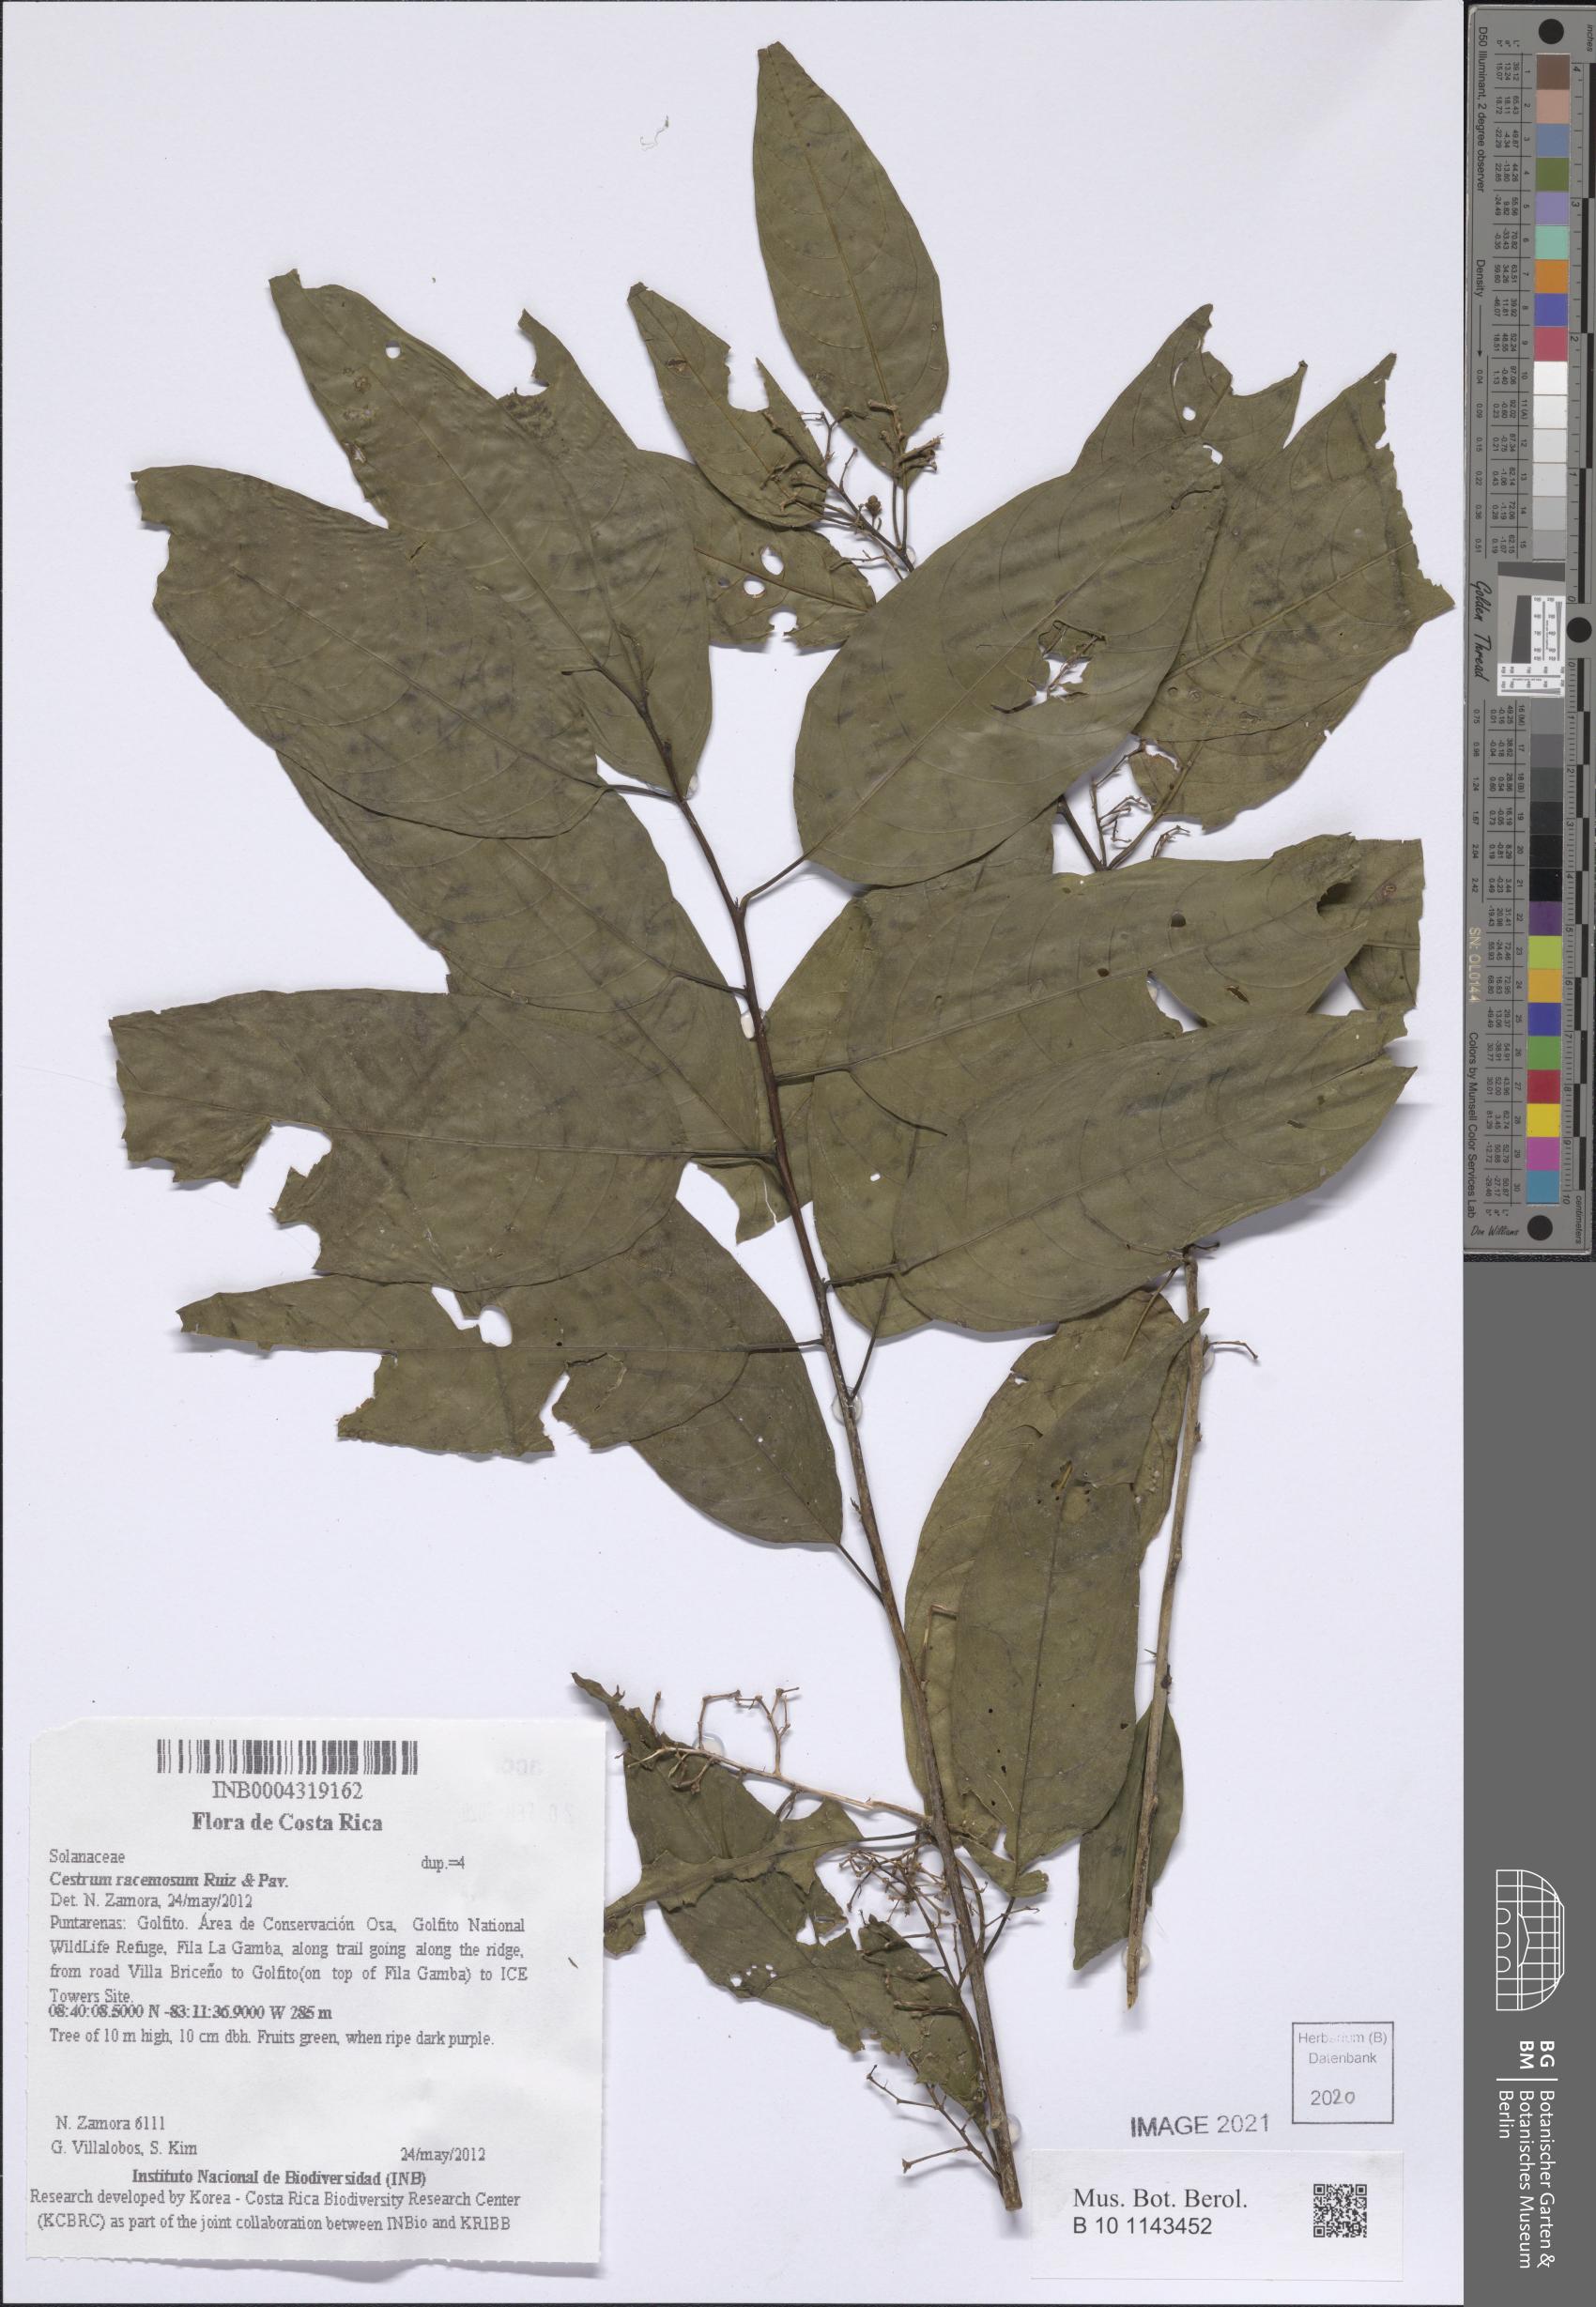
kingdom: Plantae
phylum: Tracheophyta
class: Magnoliopsida
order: Solanales
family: Solanaceae
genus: Cestrum
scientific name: Cestrum racemosum
